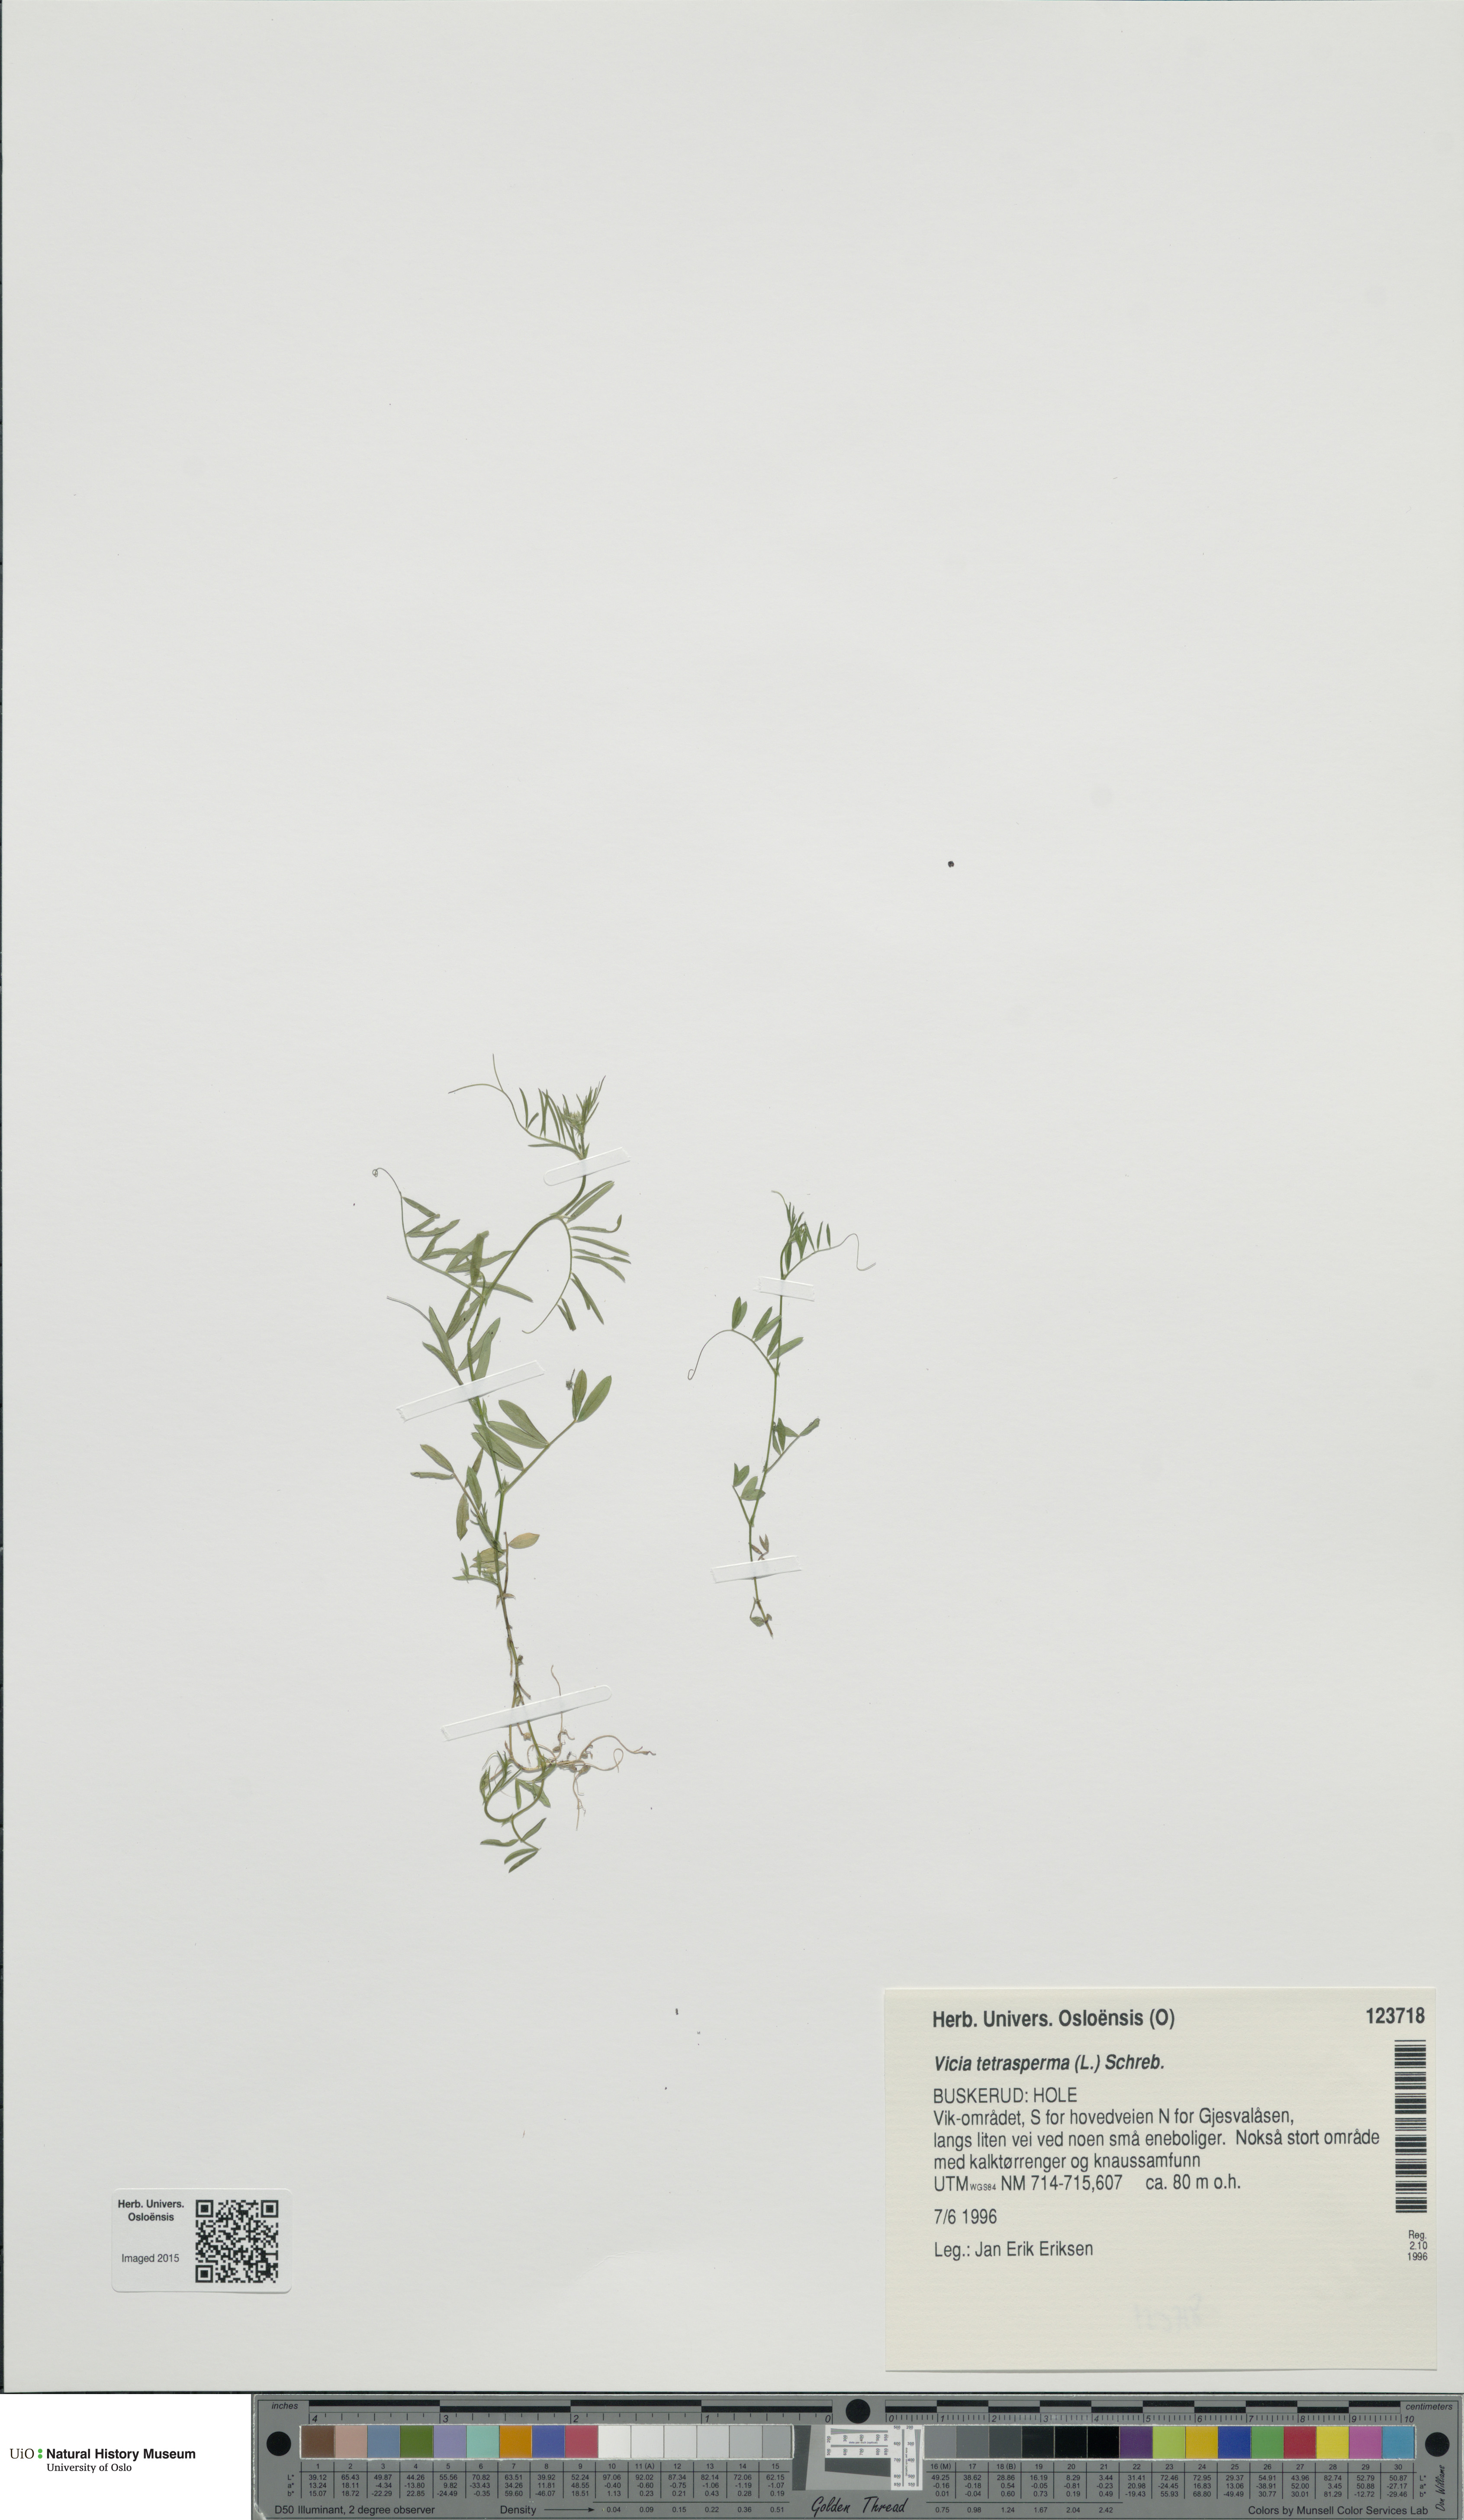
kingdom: Plantae
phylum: Tracheophyta
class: Magnoliopsida
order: Fabales
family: Fabaceae
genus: Vicia
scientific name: Vicia tetrasperma
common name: Smooth tare
